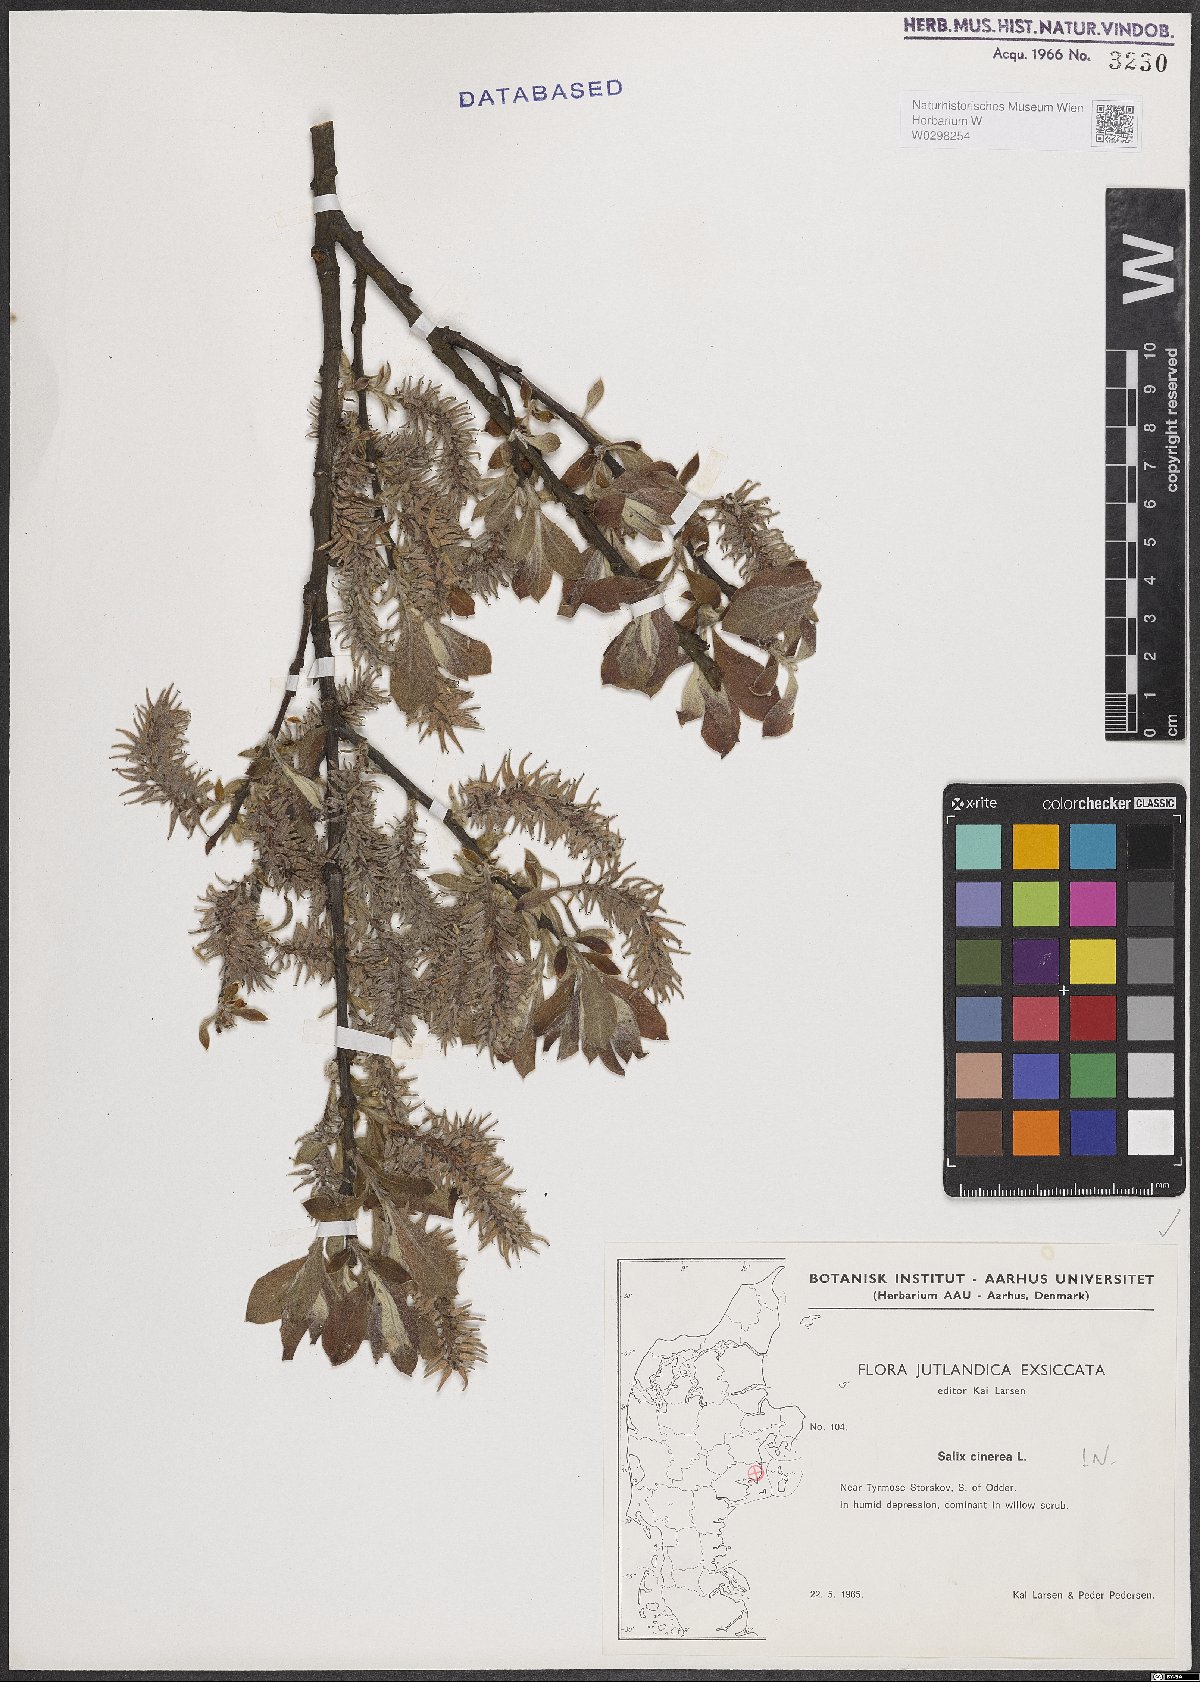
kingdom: Plantae
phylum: Tracheophyta
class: Magnoliopsida
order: Malpighiales
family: Salicaceae
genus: Salix
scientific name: Salix cinerea
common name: Common sallow
